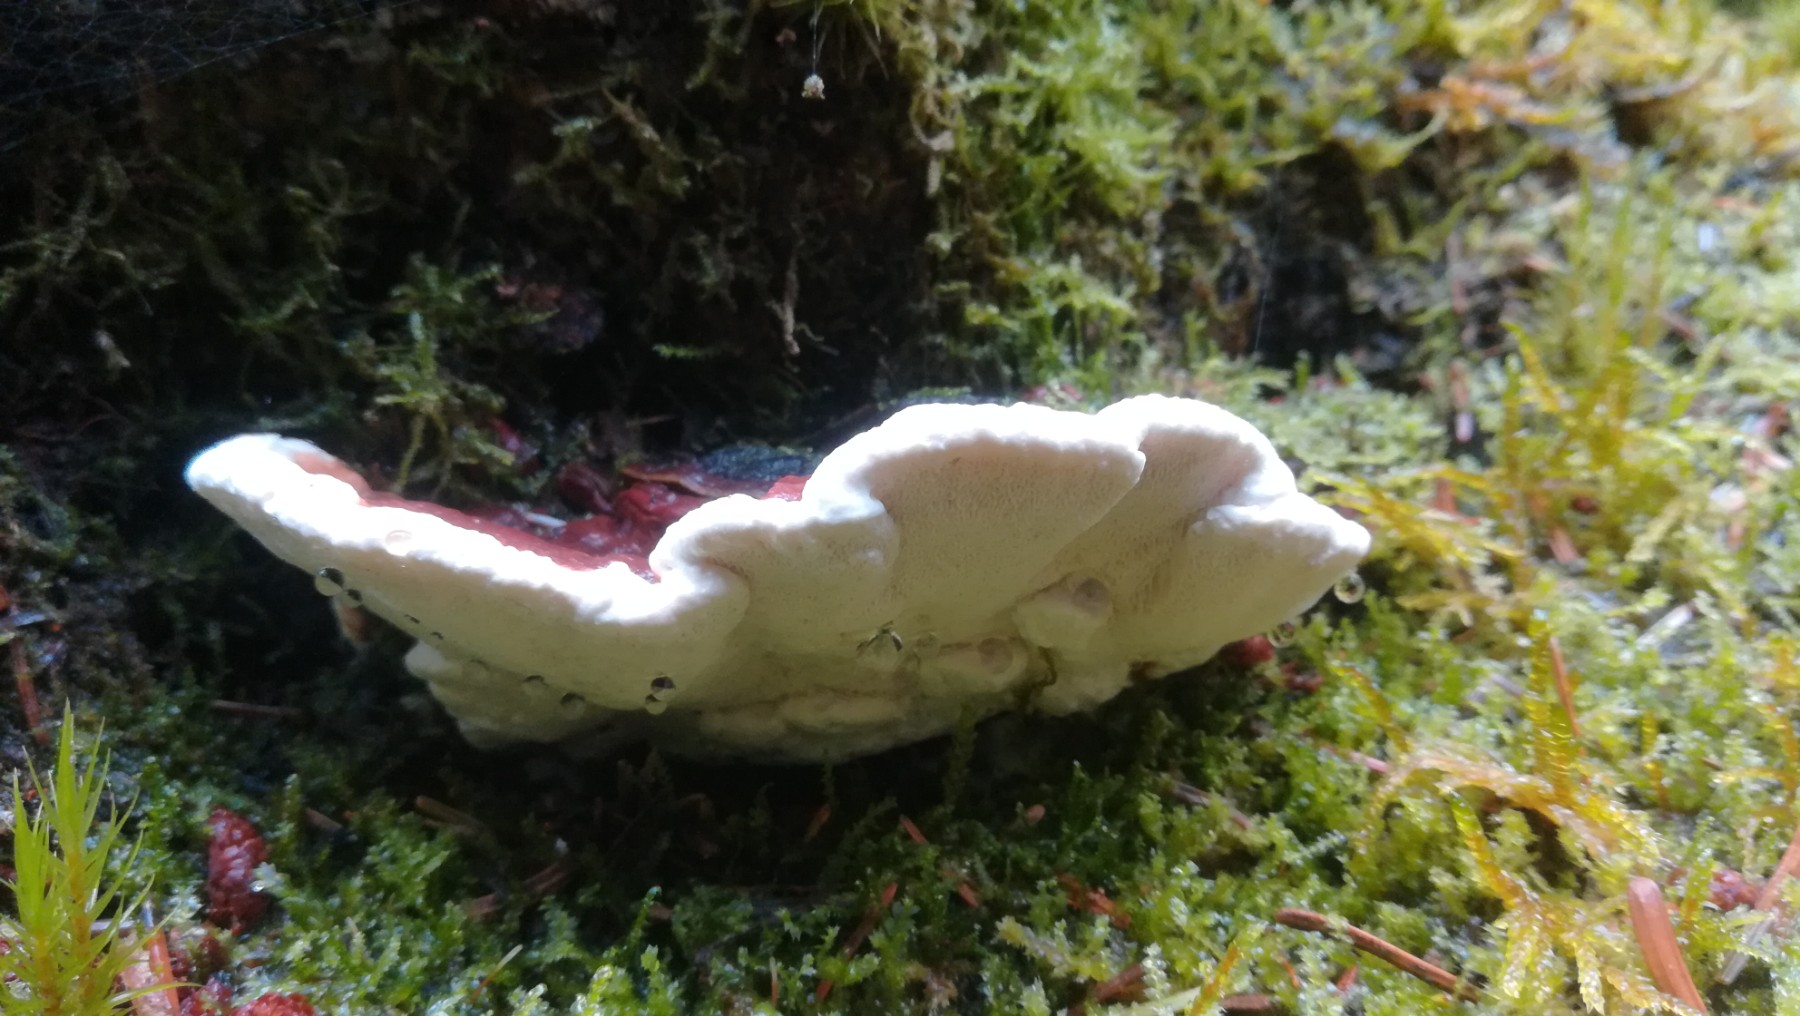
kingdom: Fungi
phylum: Basidiomycota
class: Agaricomycetes
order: Russulales
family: Bondarzewiaceae
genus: Heterobasidion
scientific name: Heterobasidion annosum
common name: almindelig rodfordærver
